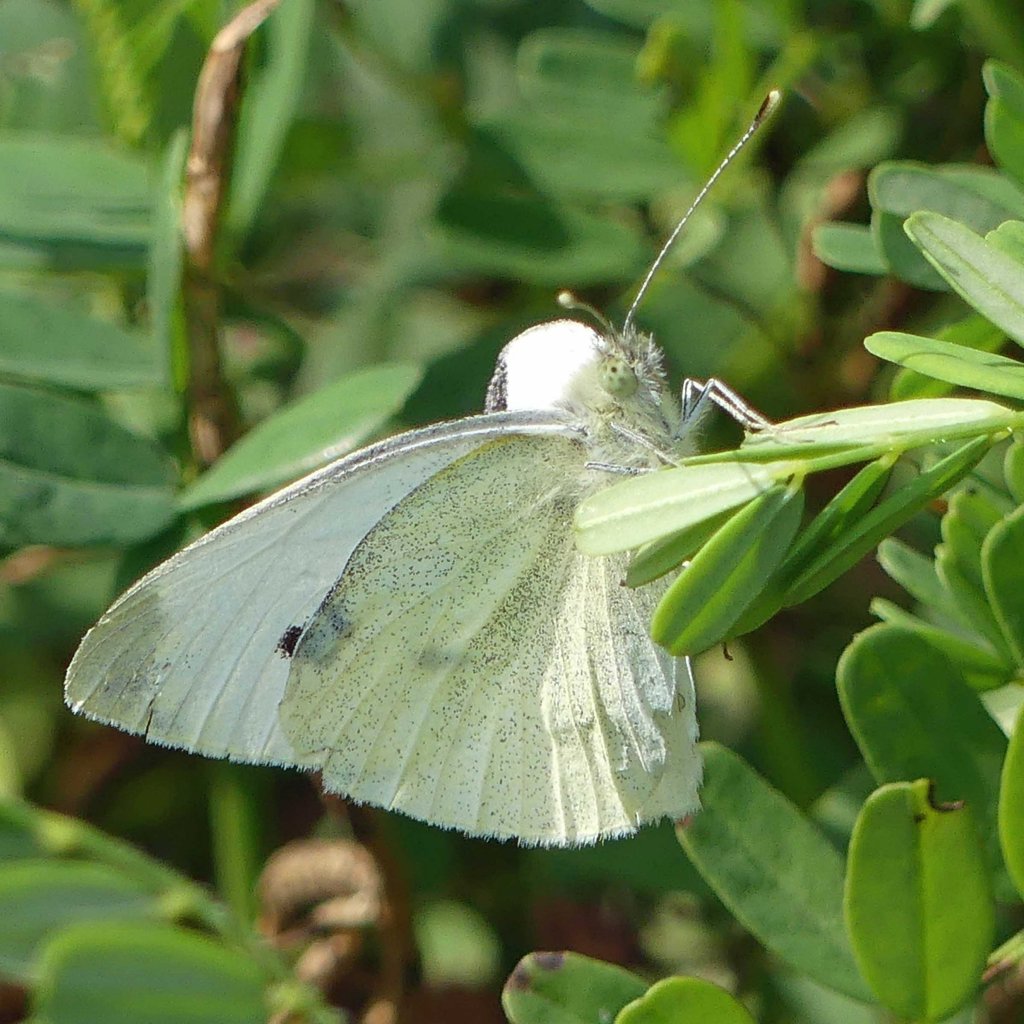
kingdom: Animalia
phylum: Arthropoda
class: Insecta
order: Lepidoptera
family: Pieridae
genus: Pieris
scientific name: Pieris rapae
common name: Cabbage White
